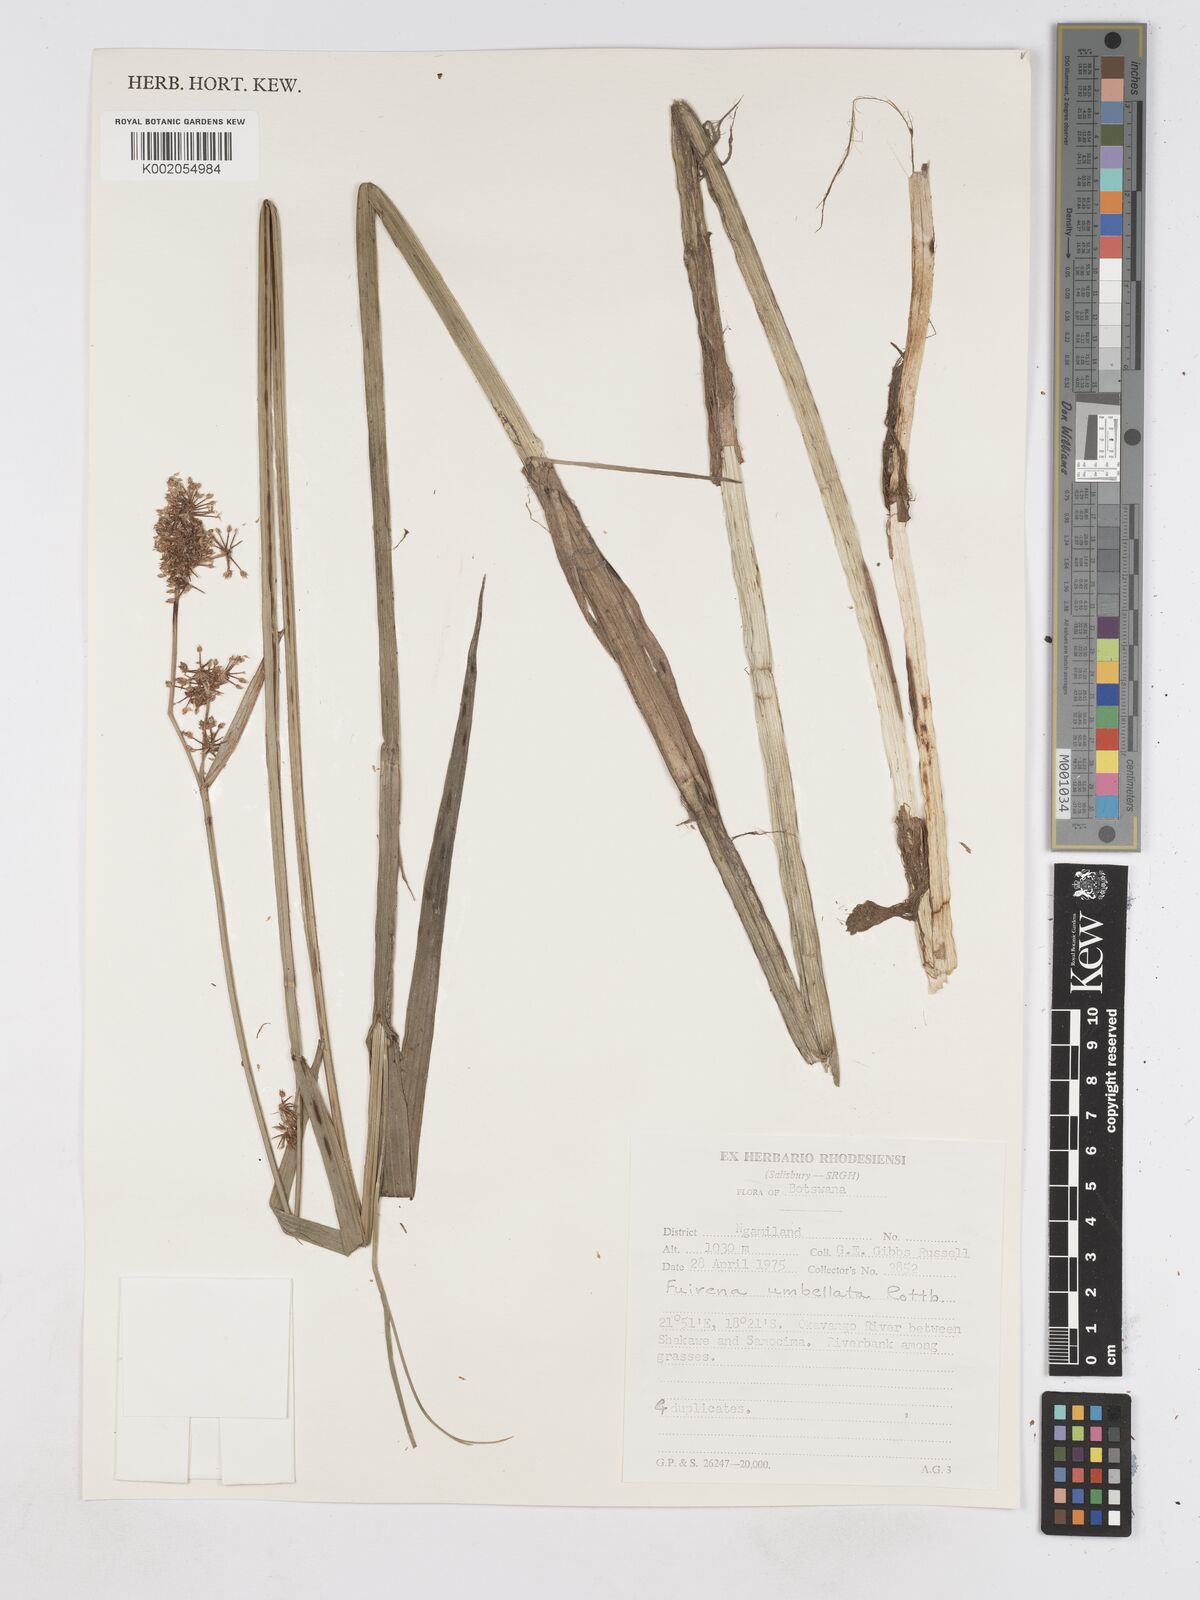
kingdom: Plantae
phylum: Tracheophyta
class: Liliopsida
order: Poales
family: Cyperaceae
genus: Fuirena
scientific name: Fuirena umbellata
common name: Yefen
